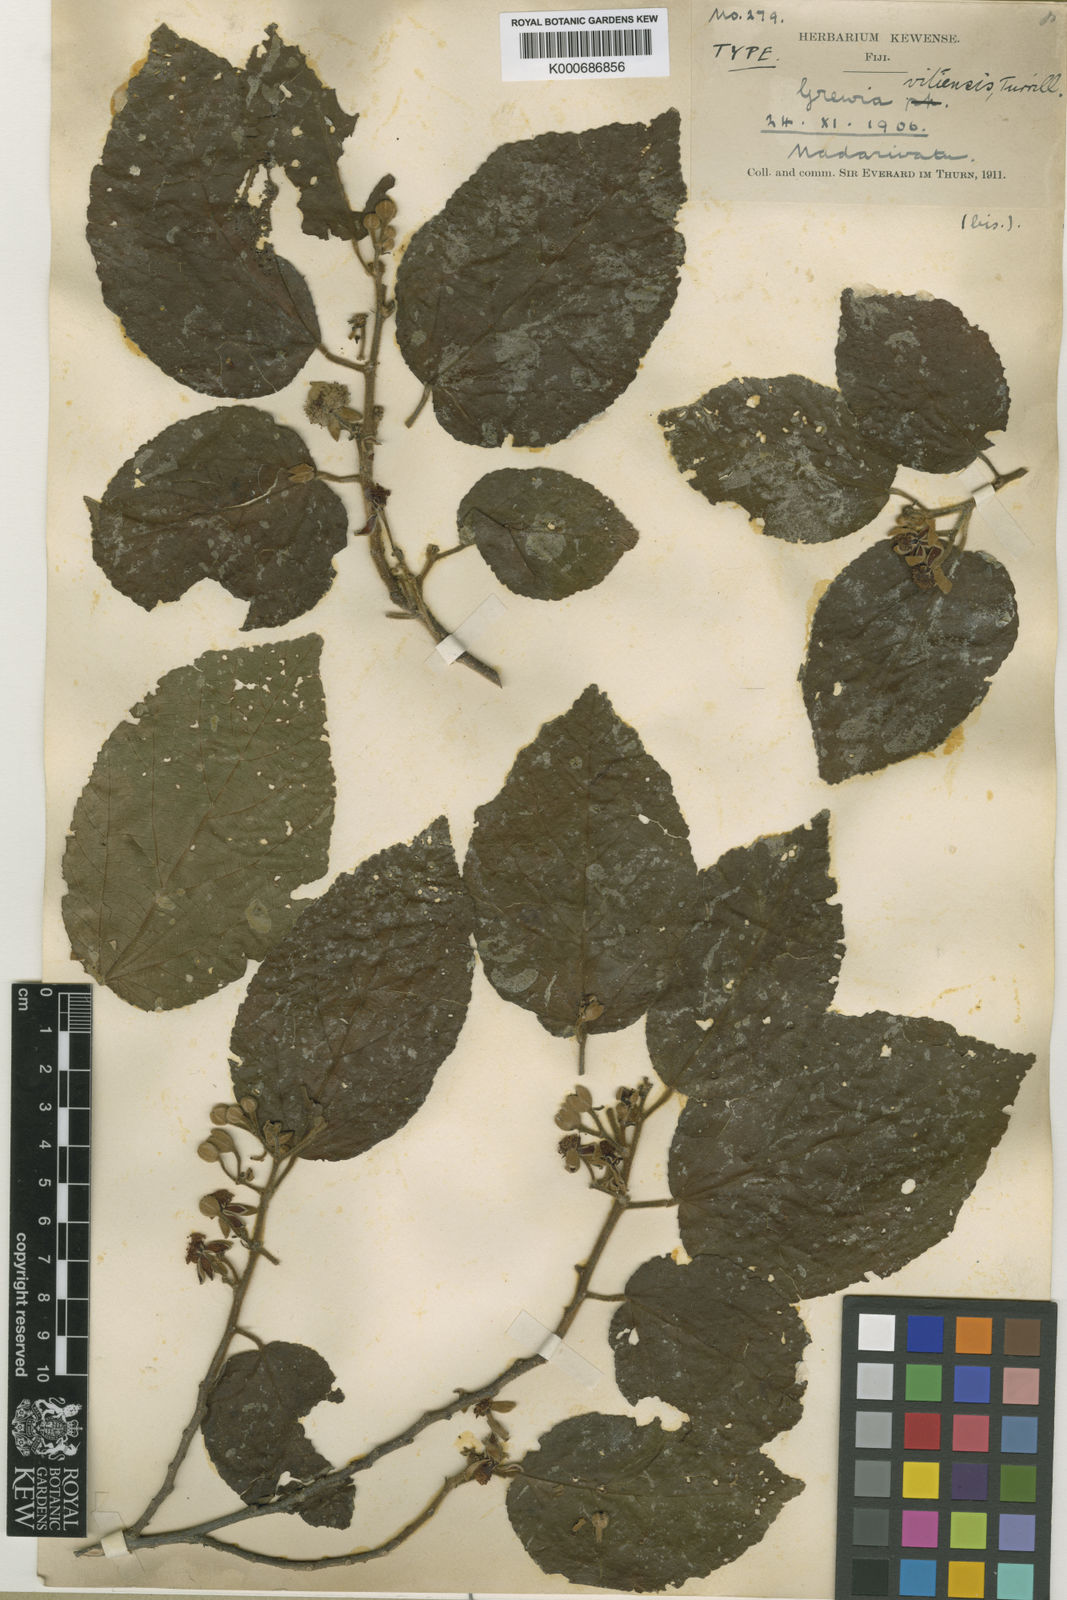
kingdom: Plantae
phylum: Tracheophyta
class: Magnoliopsida
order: Malvales
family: Malvaceae
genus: Grewia
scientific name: Grewia vitiensis
